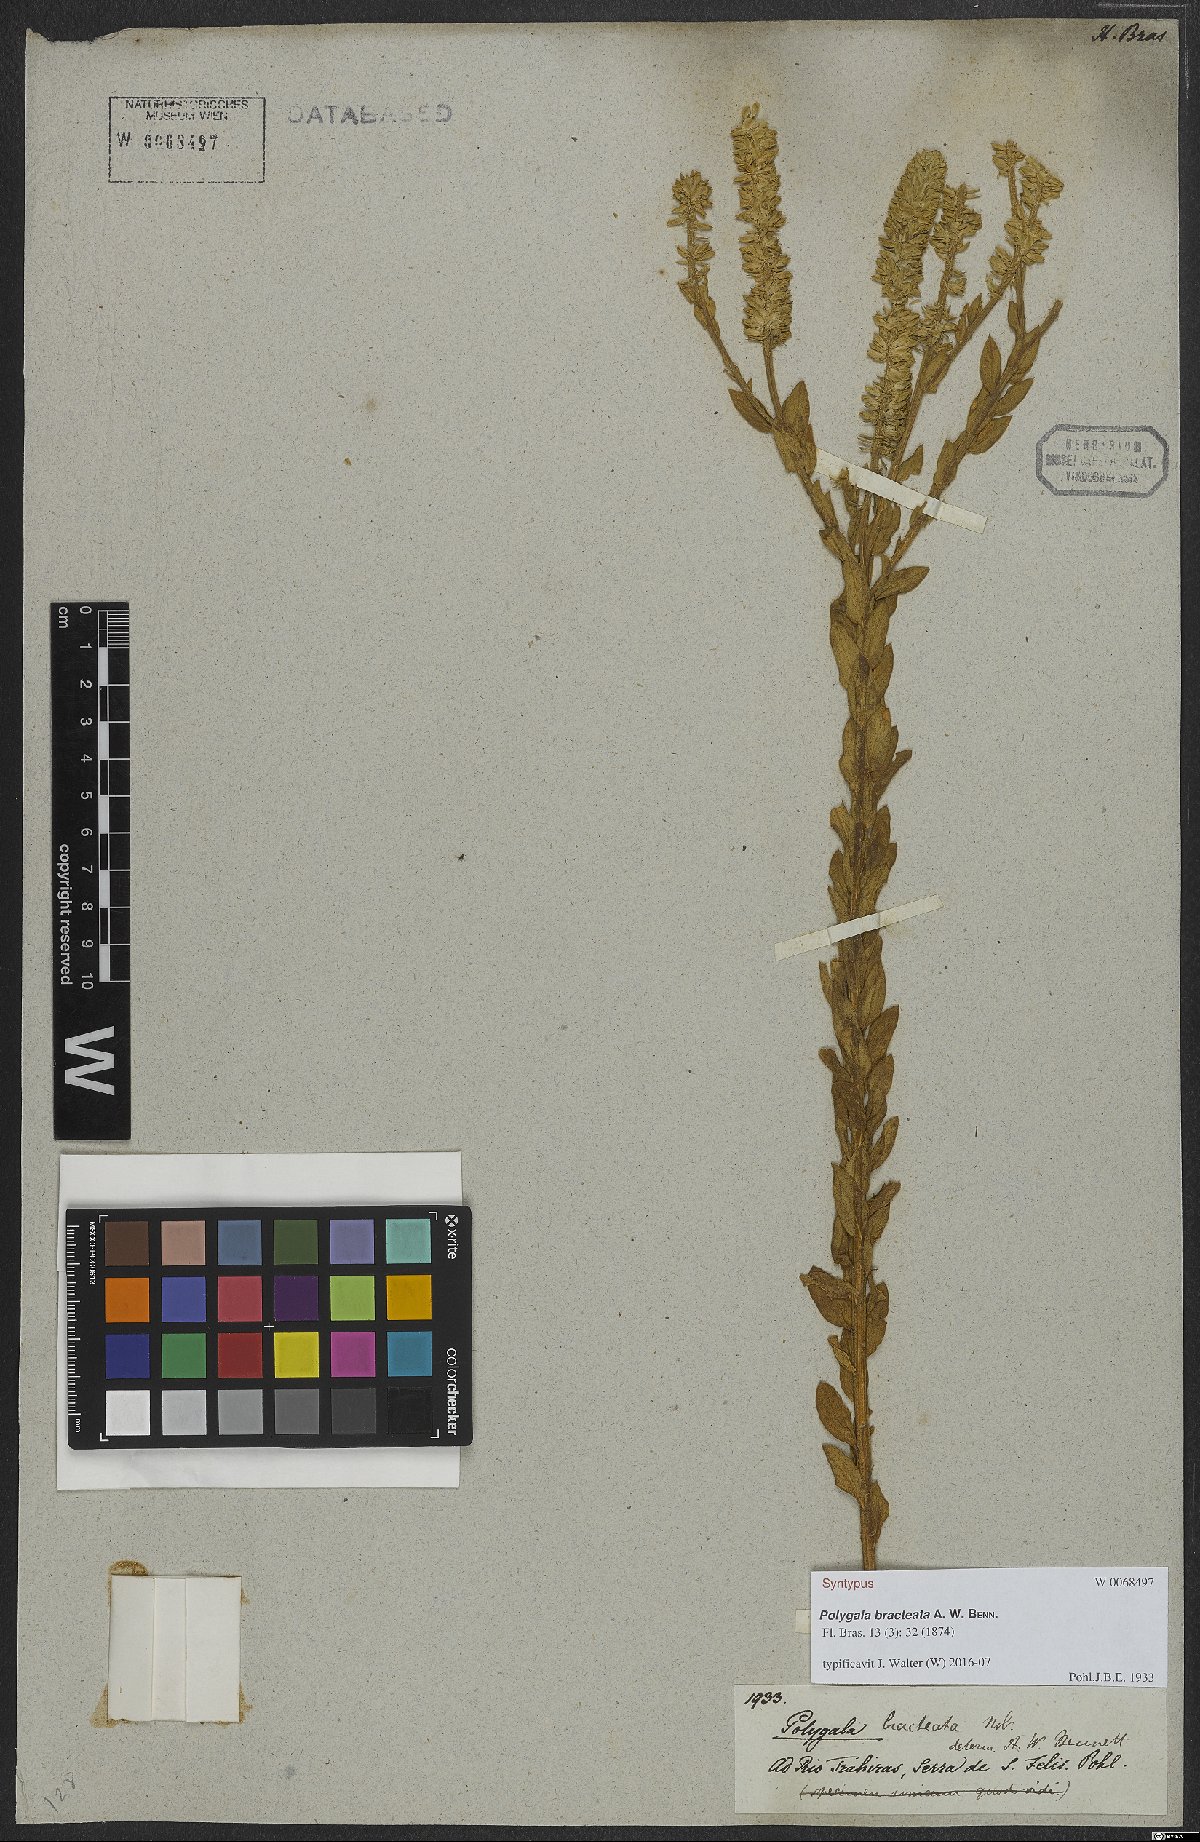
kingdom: Plantae
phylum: Tracheophyta
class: Magnoliopsida
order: Fabales
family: Polygalaceae
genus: Polygala
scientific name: Polygala bracteata
